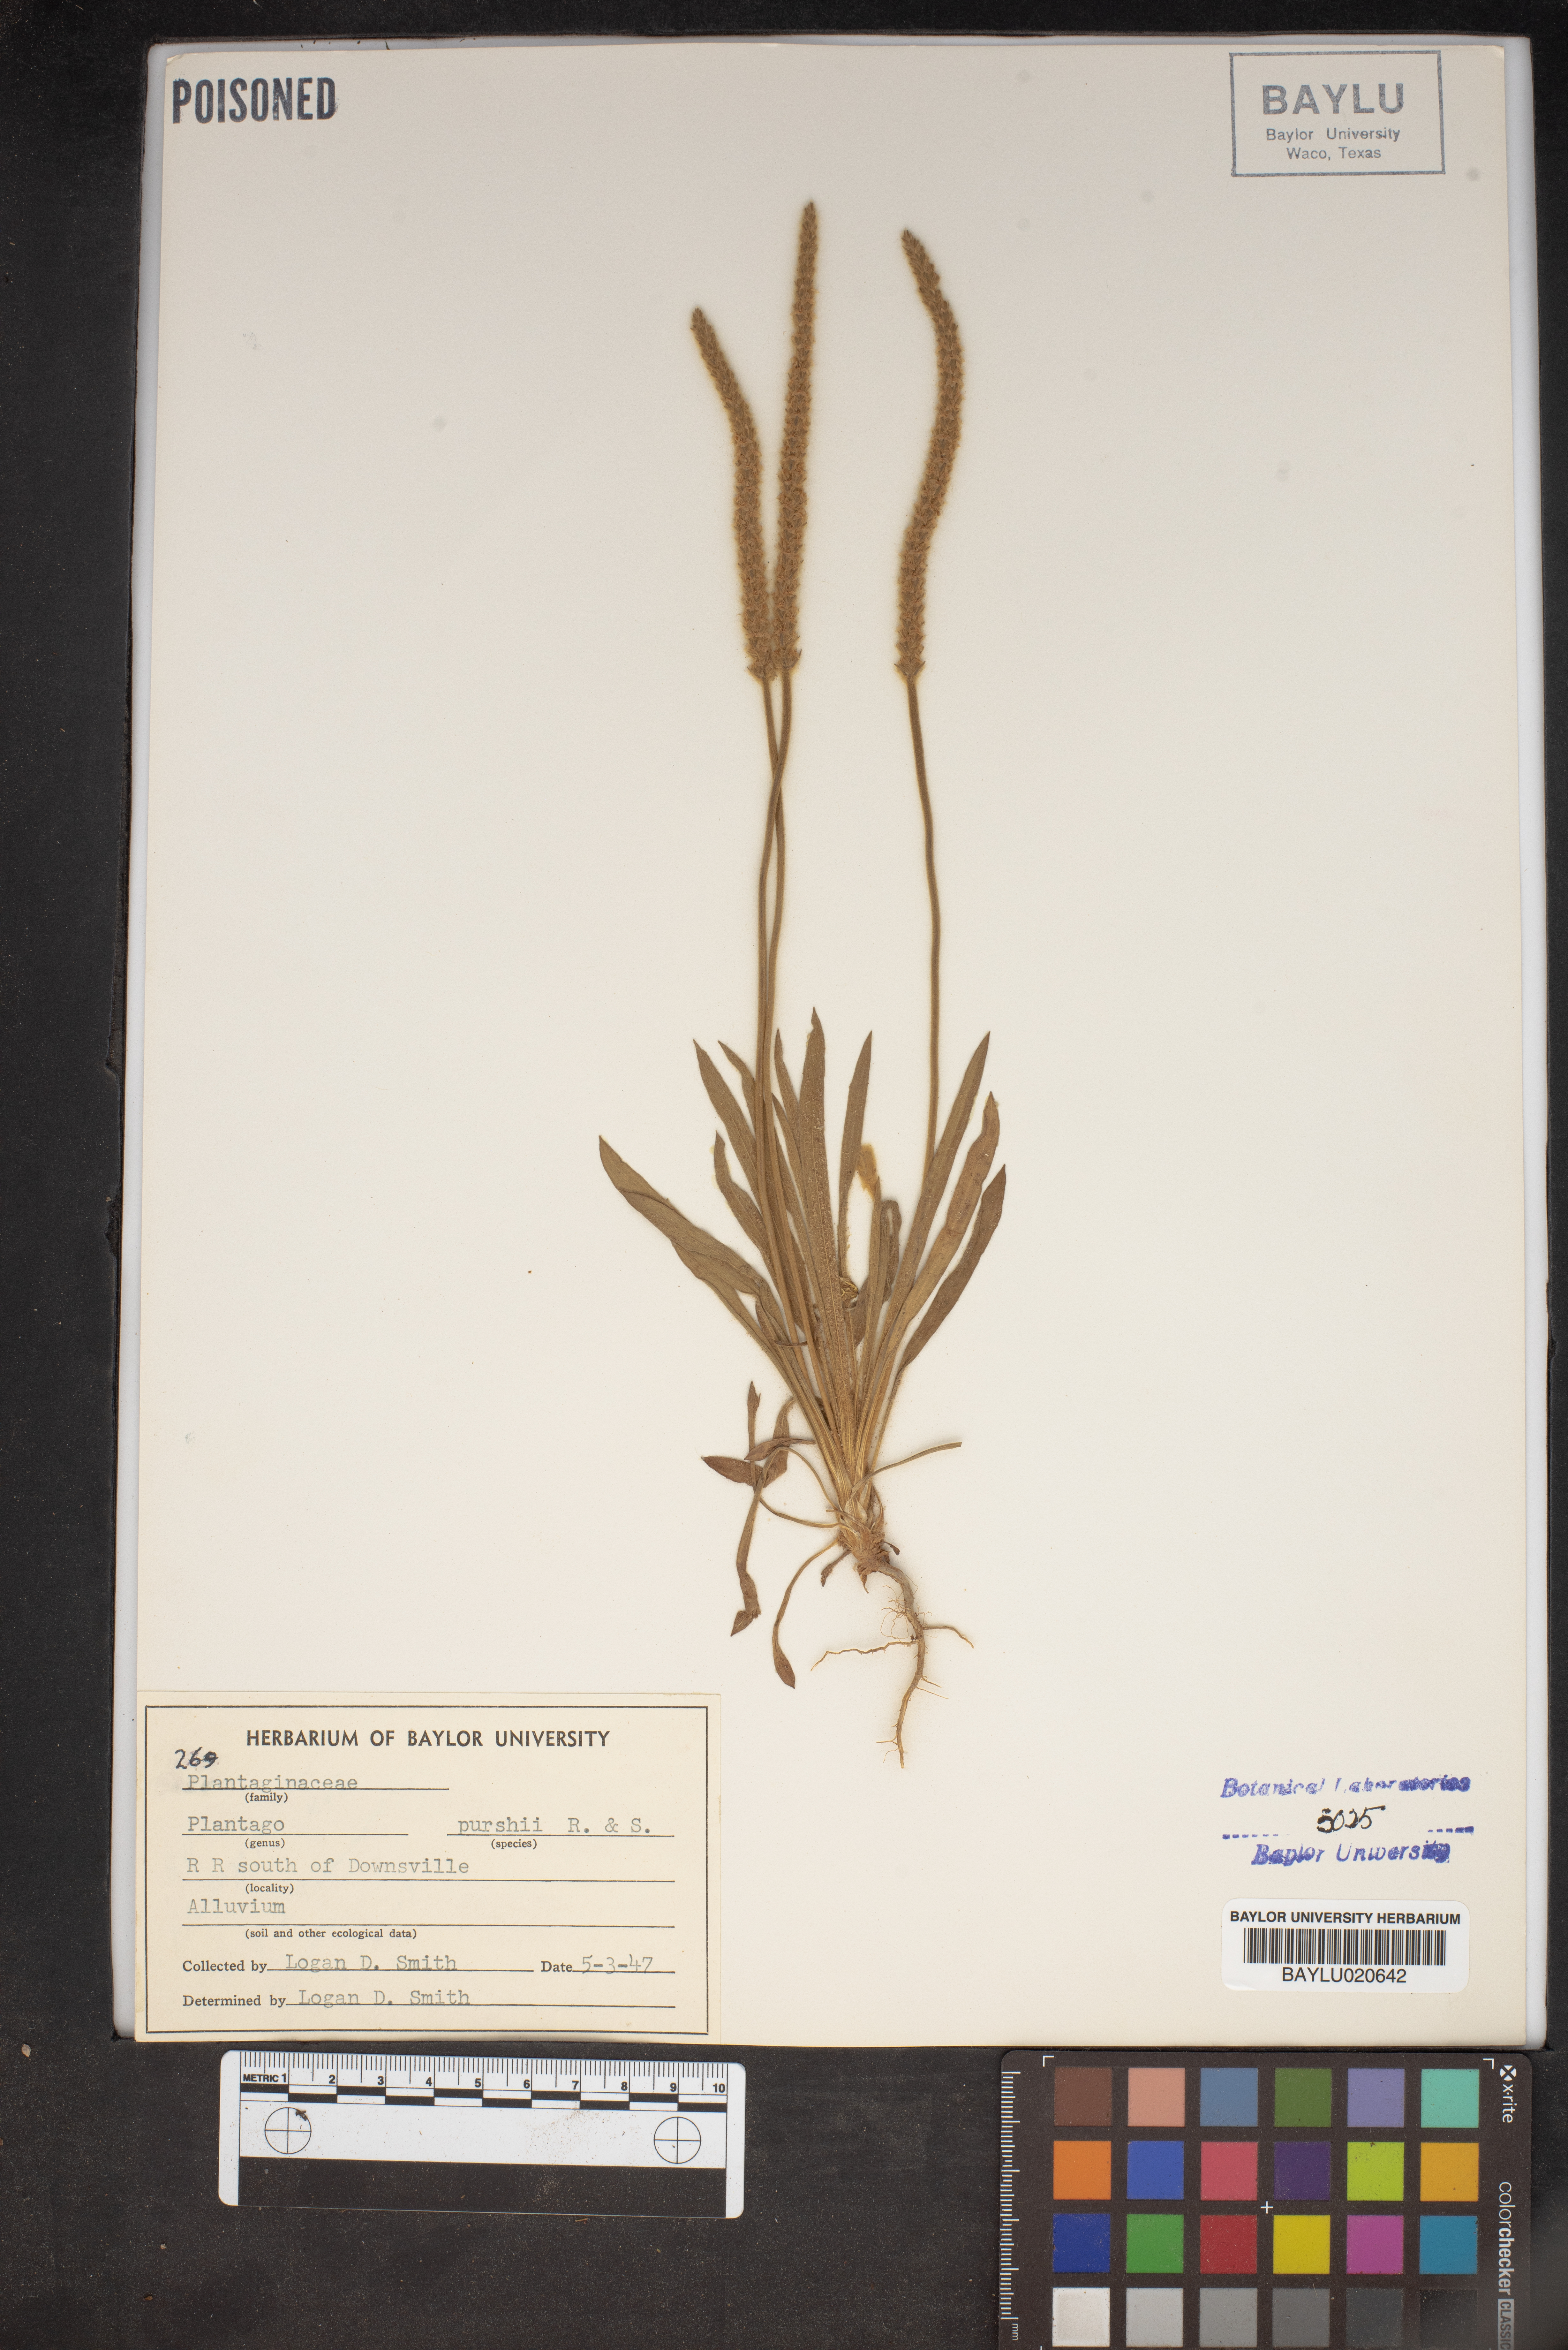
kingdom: Plantae
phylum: Tracheophyta
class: Magnoliopsida
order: Lamiales
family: Plantaginaceae
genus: Plantago
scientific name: Plantago patagonica
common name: Patagonia indian-wheat
